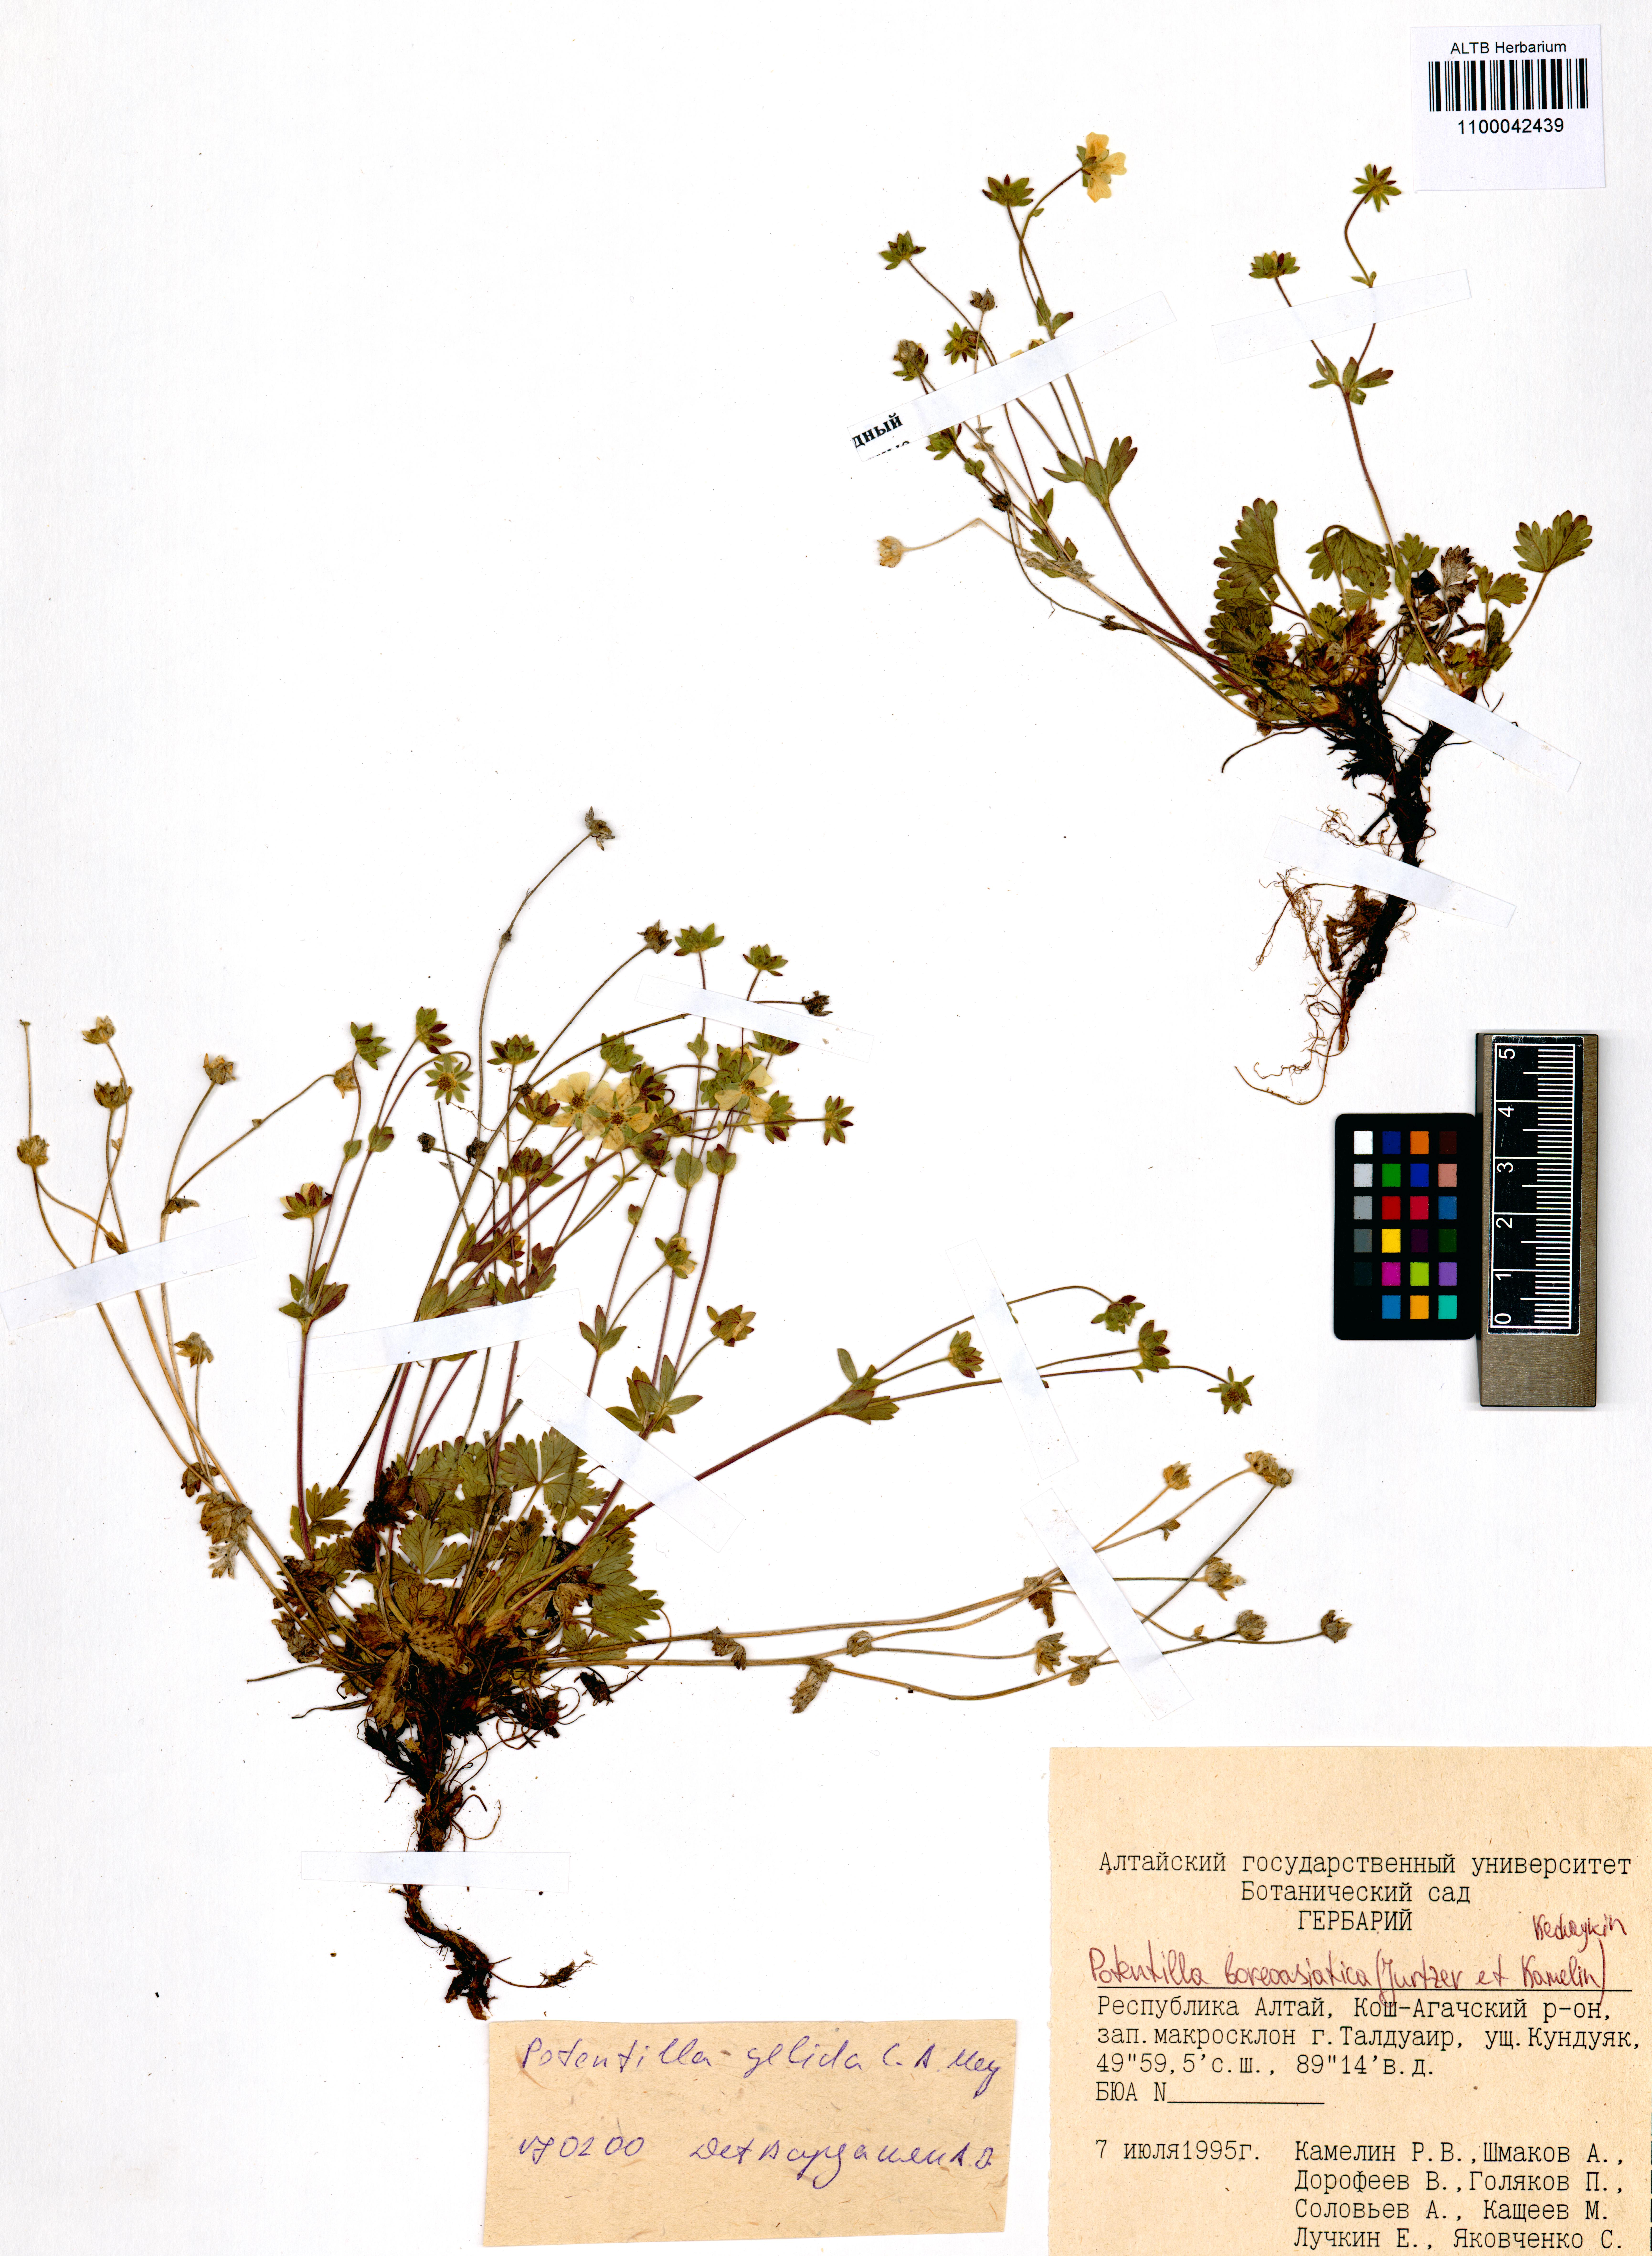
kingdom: Plantae
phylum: Tracheophyta
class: Magnoliopsida
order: Rosales
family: Rosaceae
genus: Potentilla
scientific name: Potentilla
